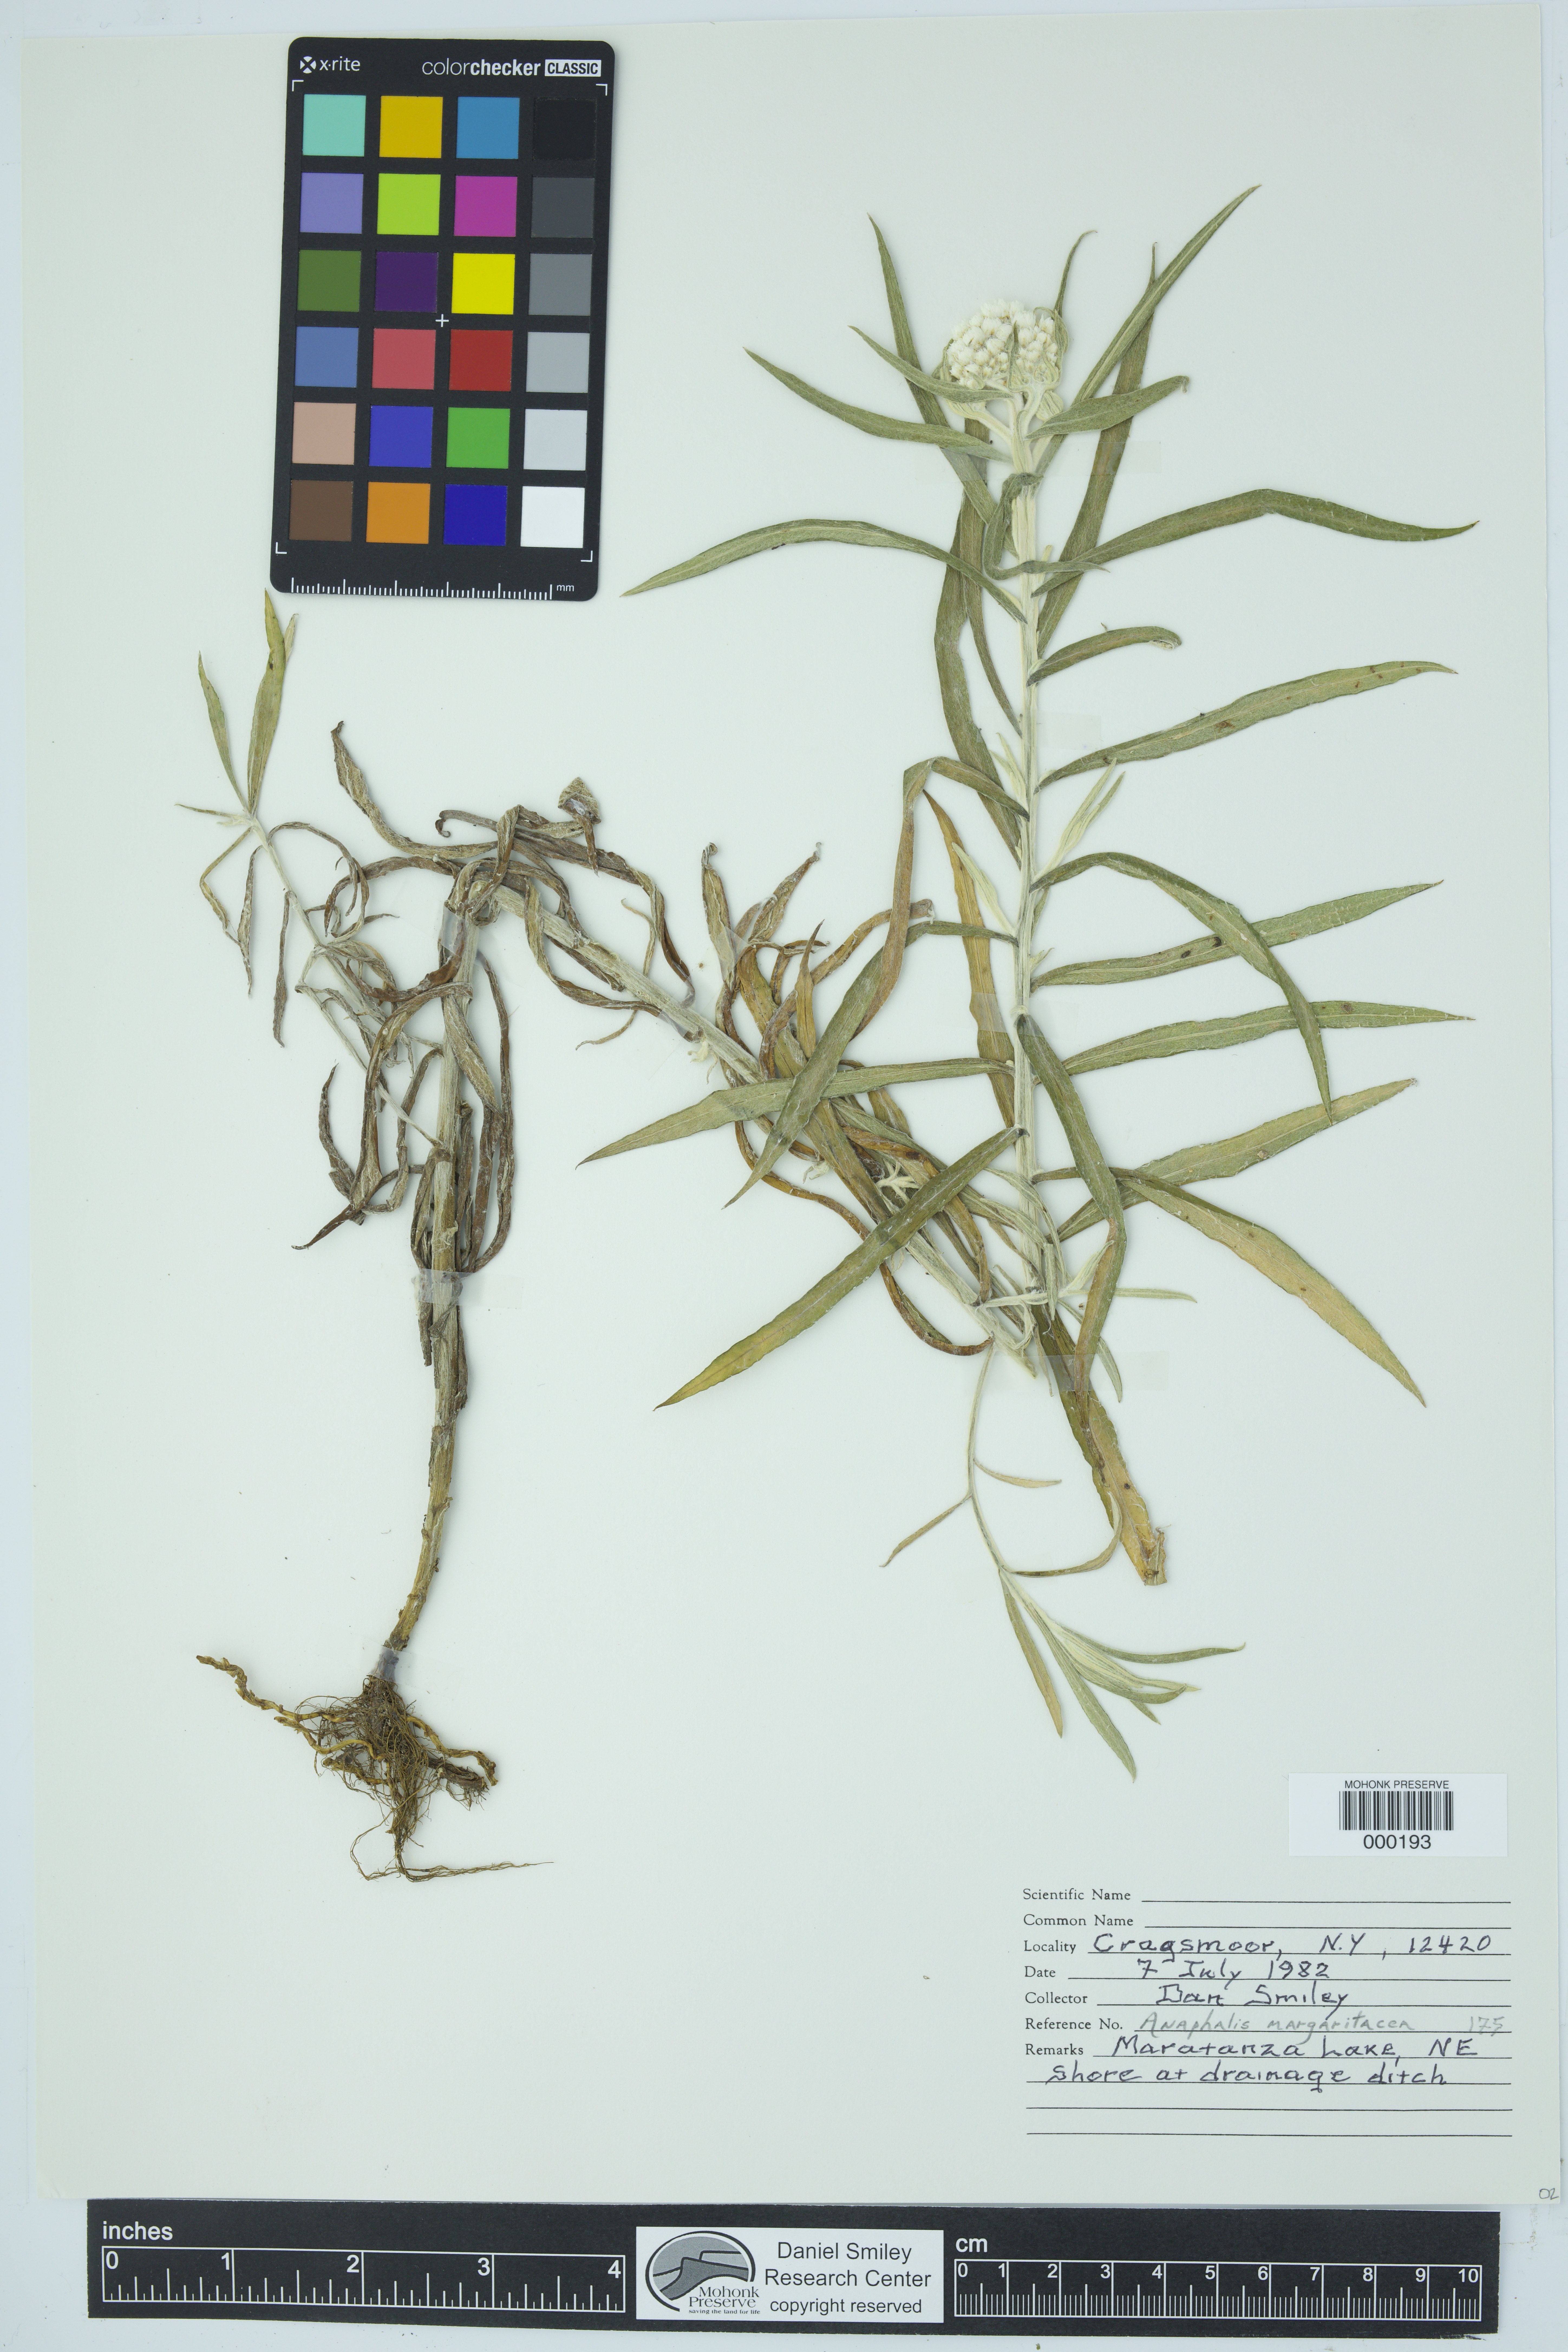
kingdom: Plantae
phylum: Tracheophyta
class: Magnoliopsida
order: Asterales
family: Asteraceae
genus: Anaphalis
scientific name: Anaphalis margaritacea
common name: Pearly everlasting
